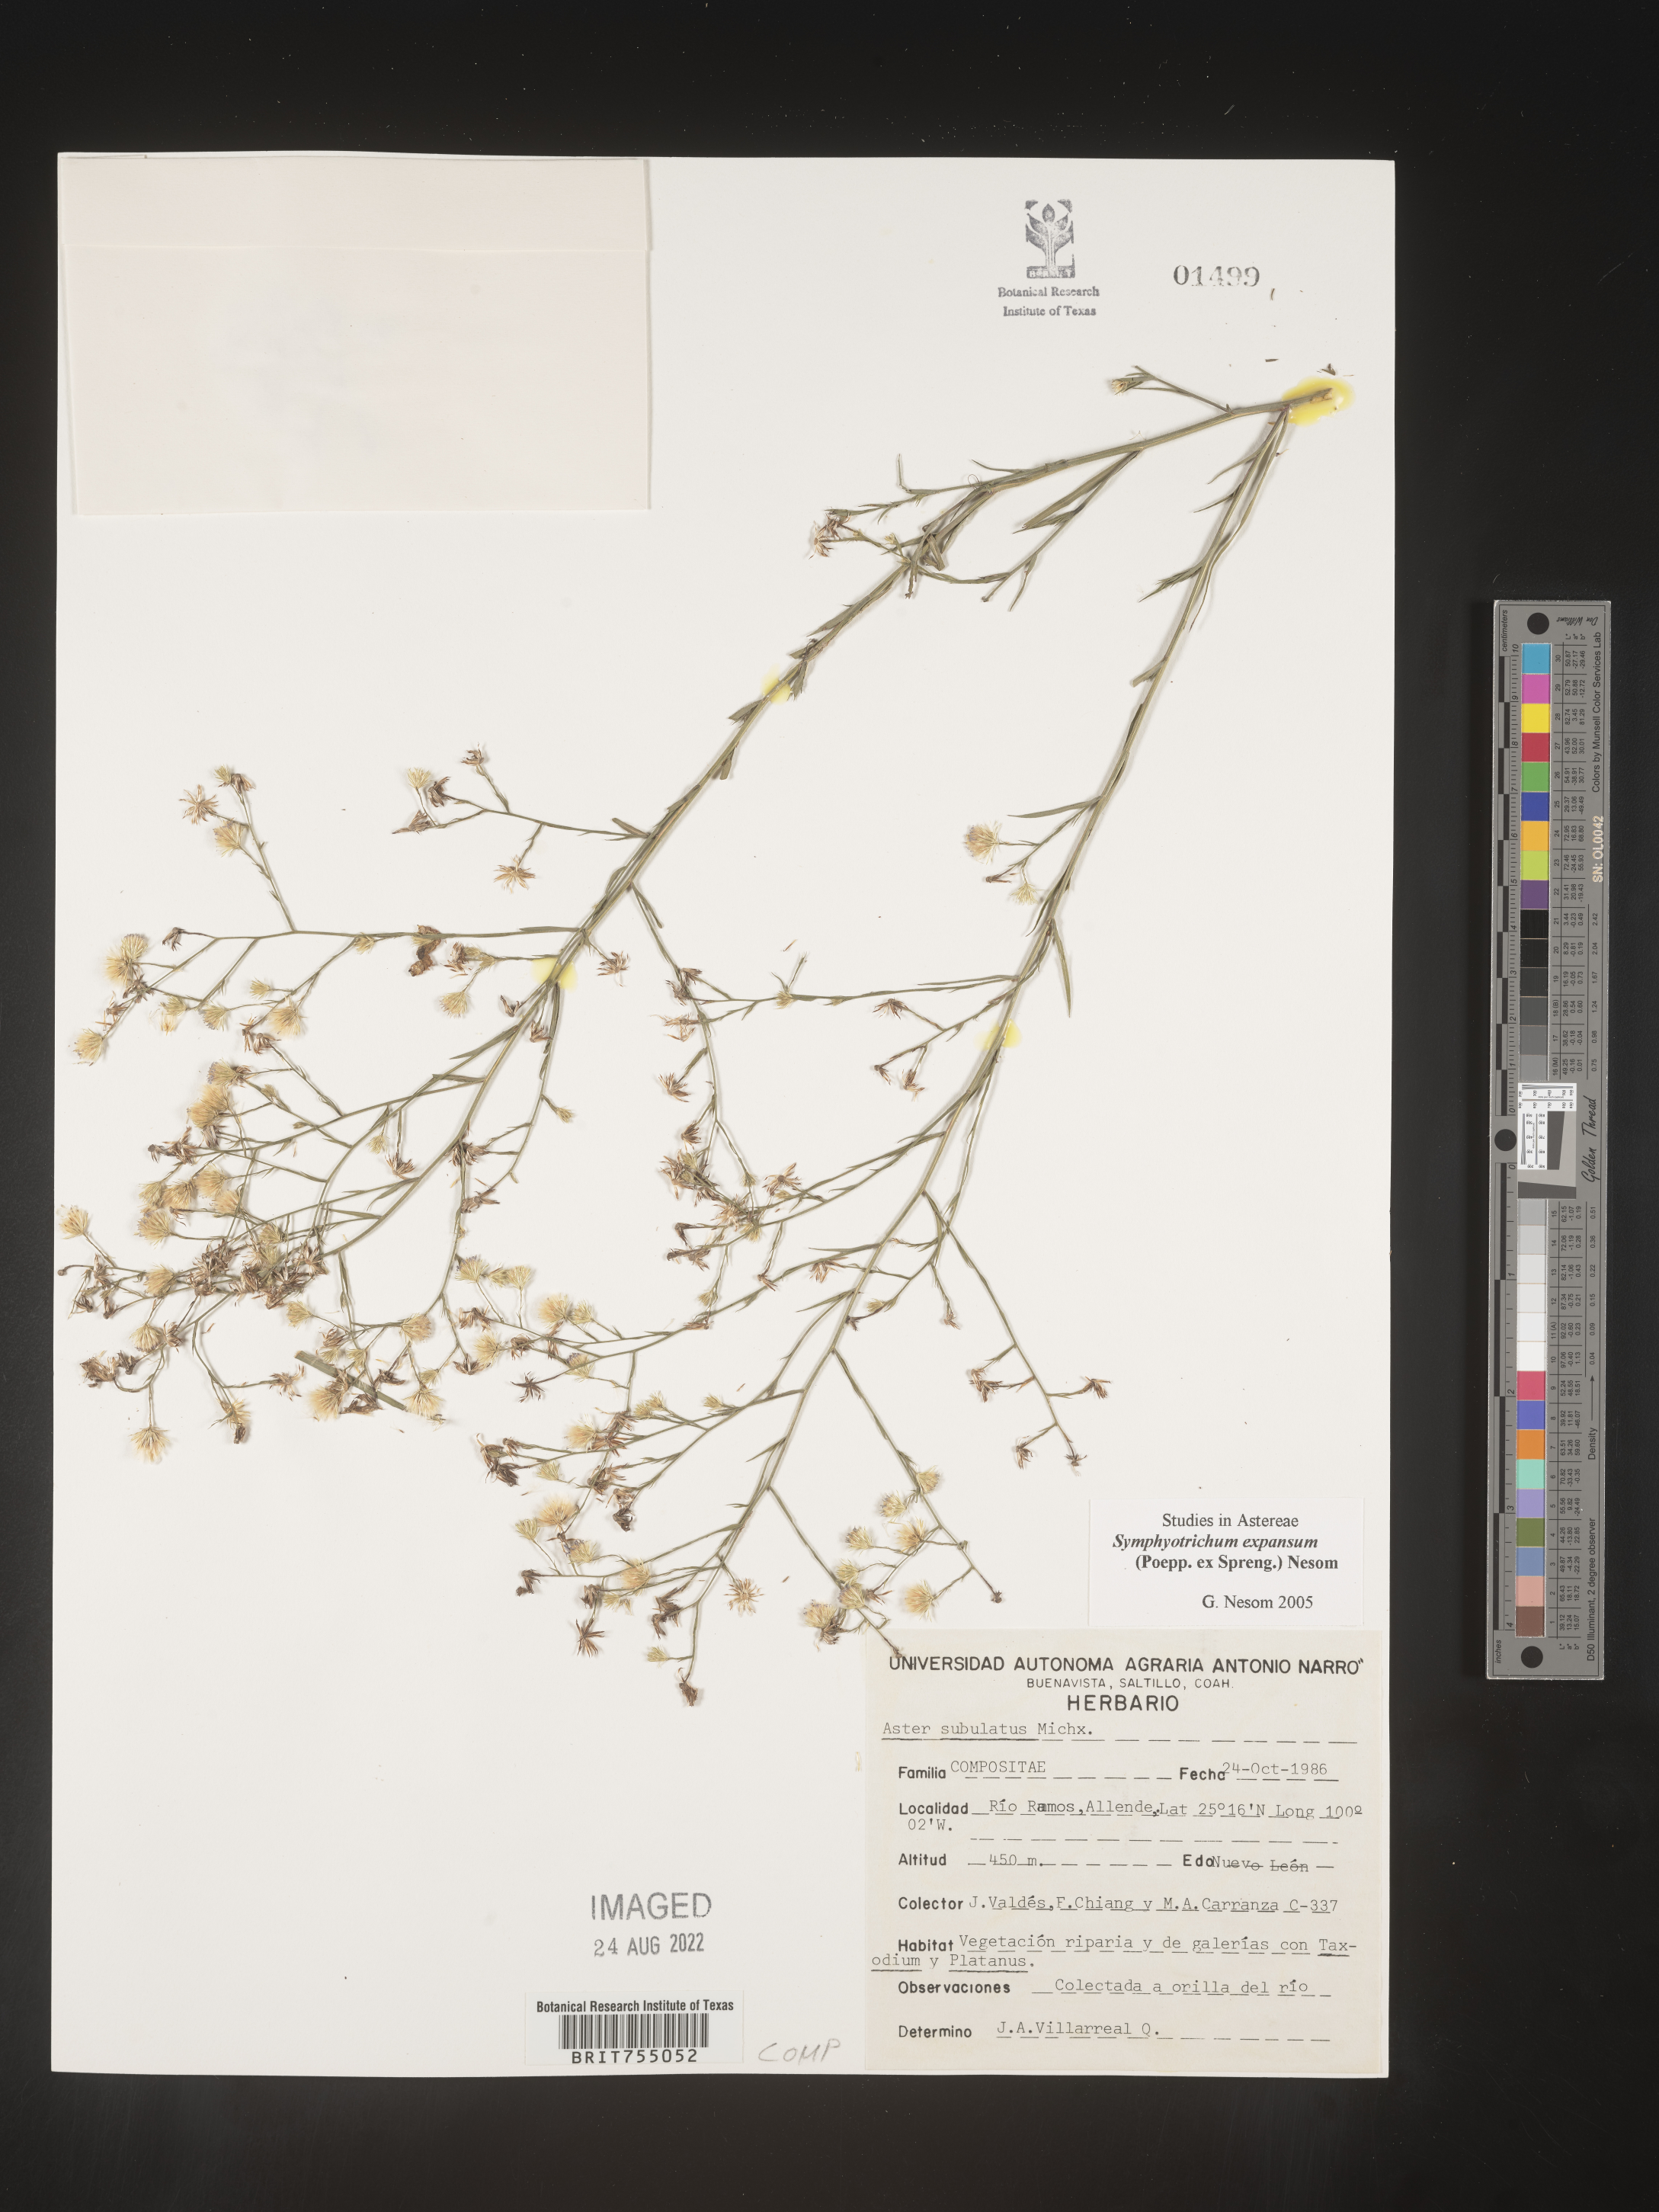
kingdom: Plantae
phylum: Tracheophyta
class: Magnoliopsida
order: Asterales
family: Asteraceae
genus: Symphyotrichum
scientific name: Symphyotrichum expansum
